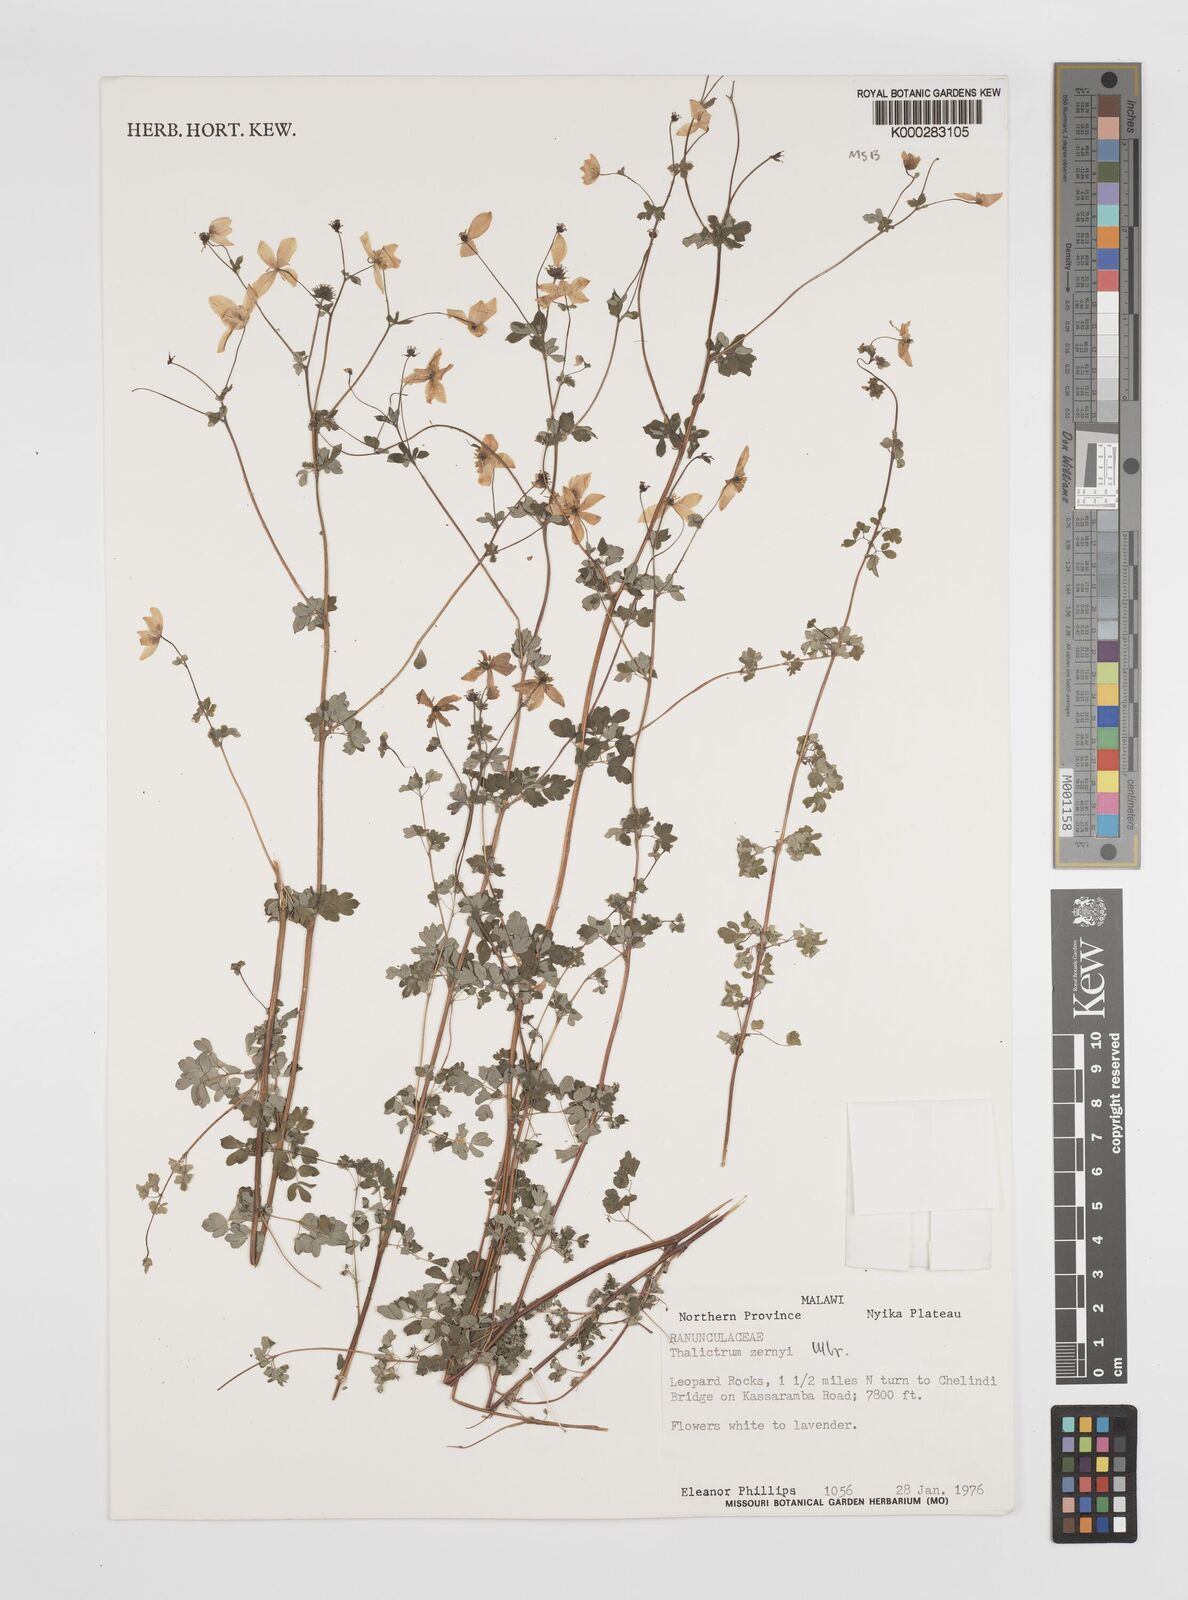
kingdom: Plantae
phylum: Tracheophyta
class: Magnoliopsida
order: Ranunculales
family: Ranunculaceae
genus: Thalictrum
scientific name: Thalictrum zernyi
